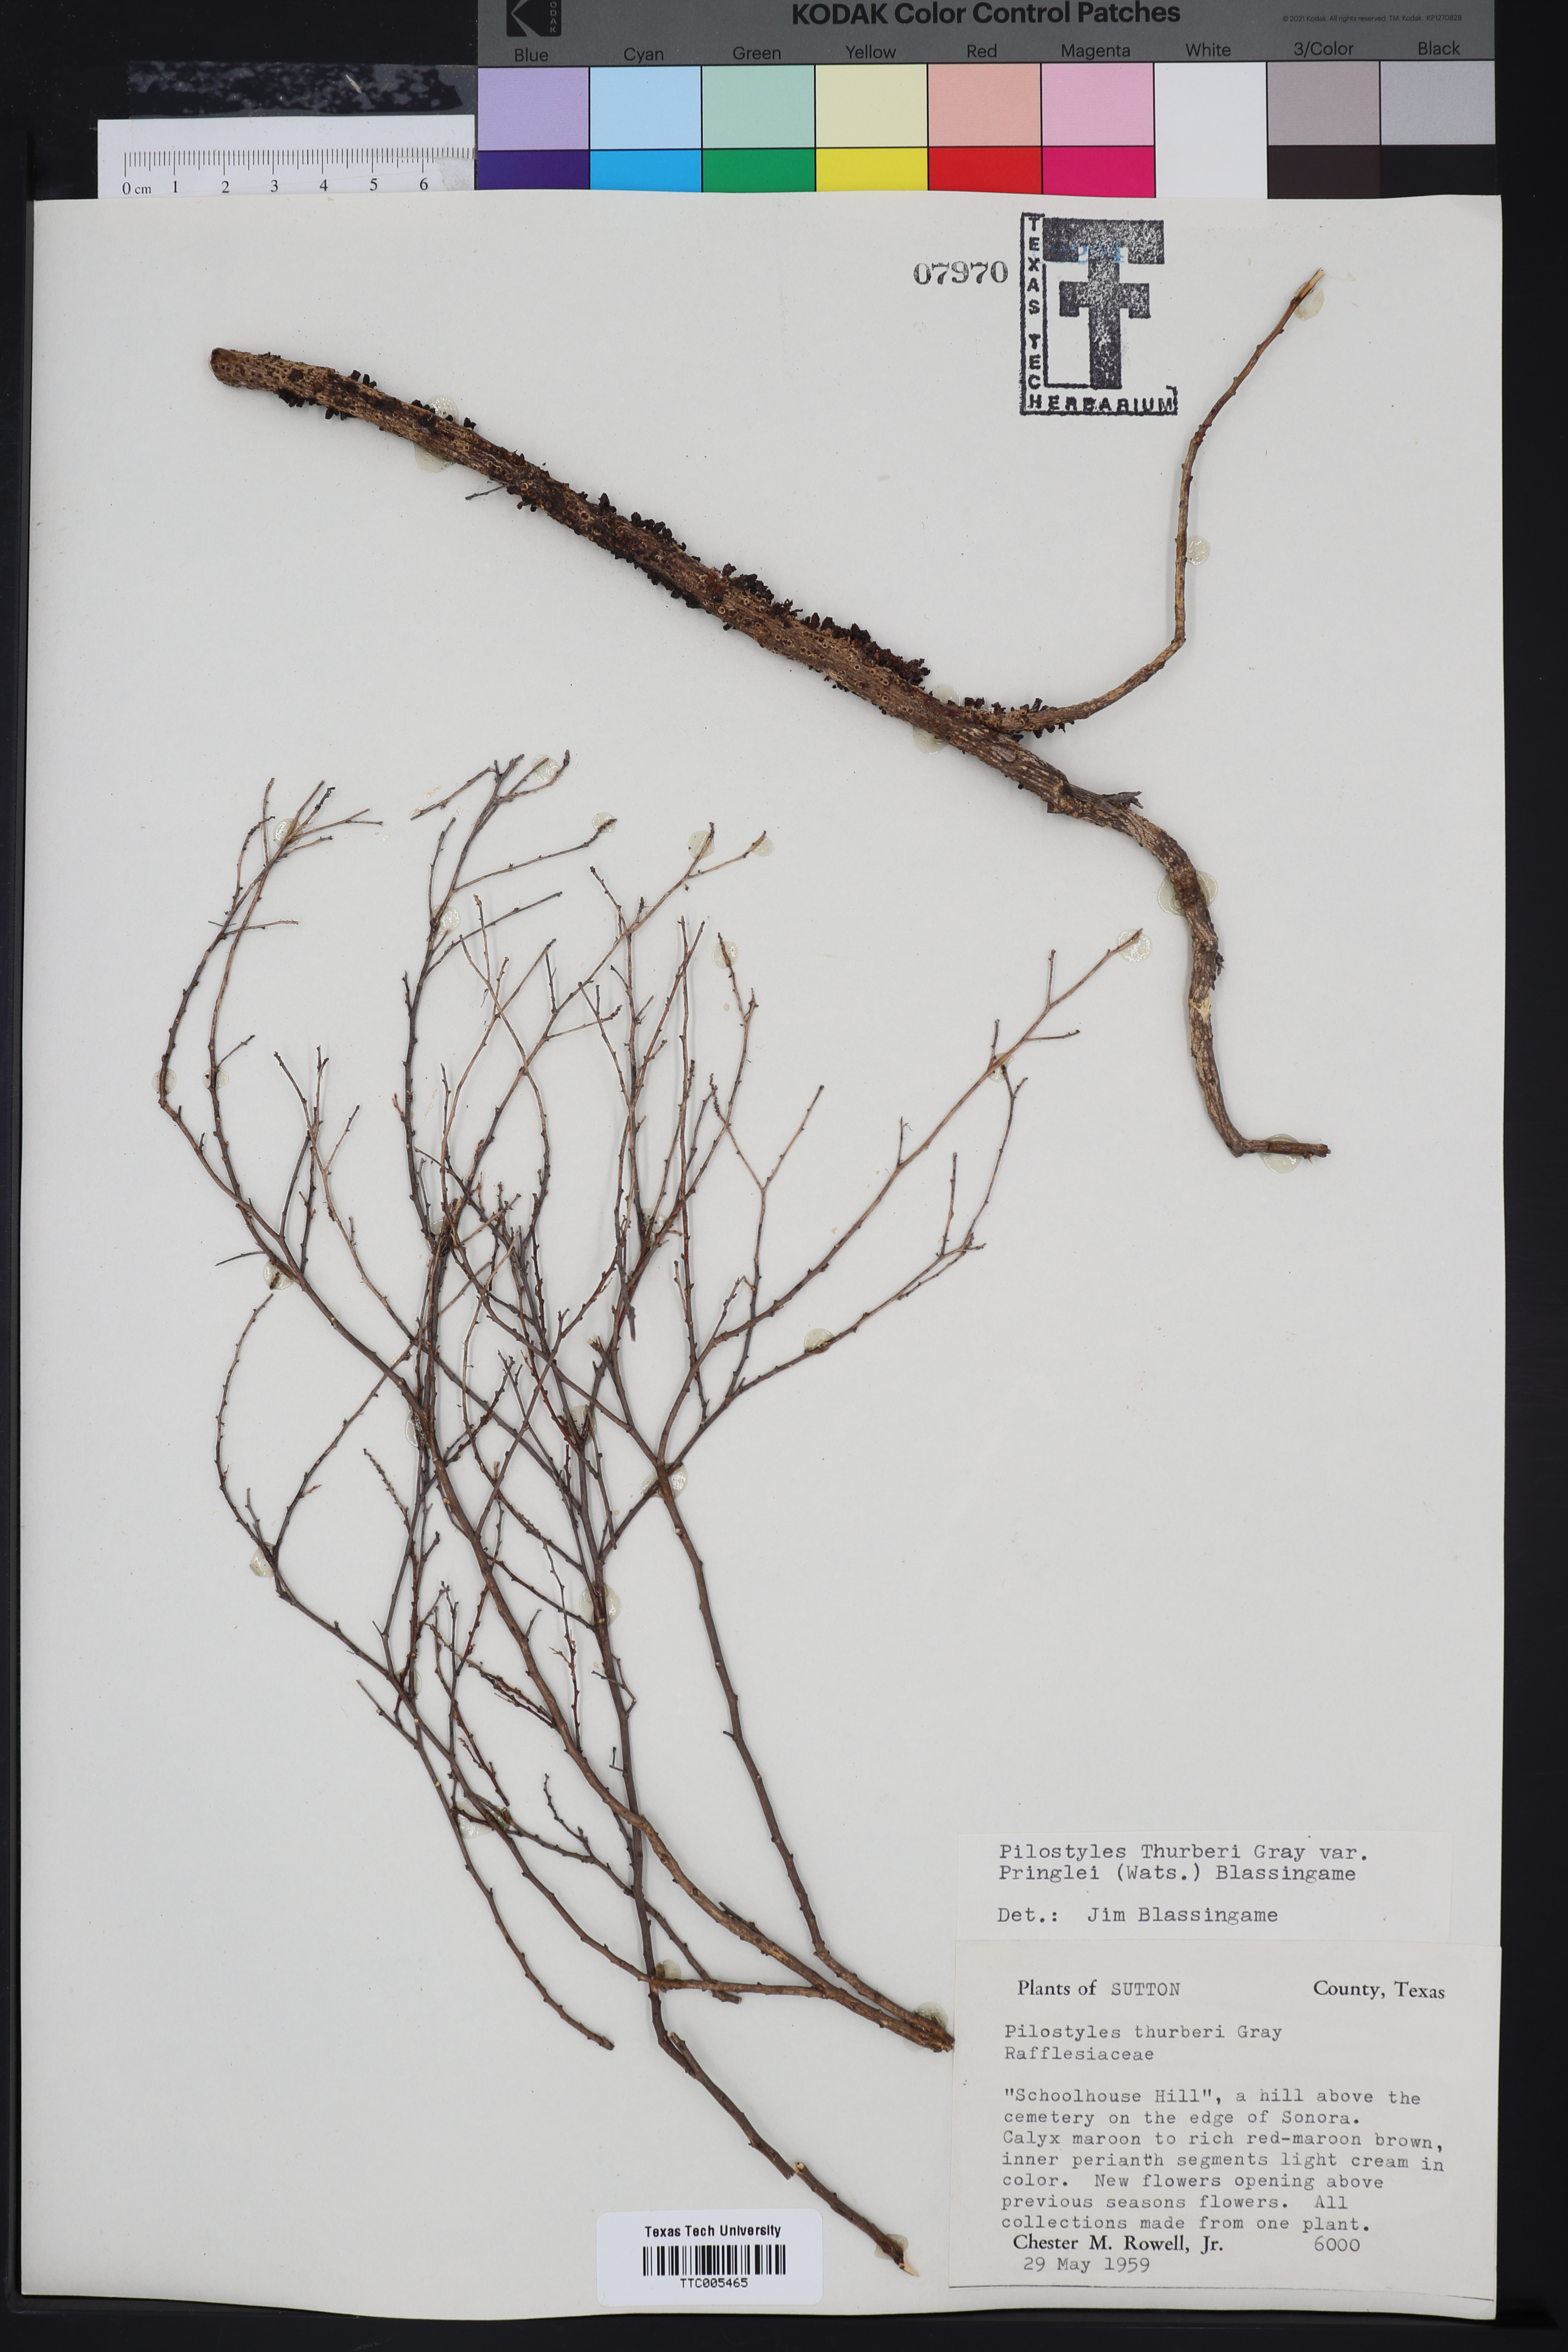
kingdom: Plantae
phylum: Tracheophyta
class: Magnoliopsida
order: Cucurbitales
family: Apodanthaceae
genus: Pilostyles
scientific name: Pilostyles thurberi
